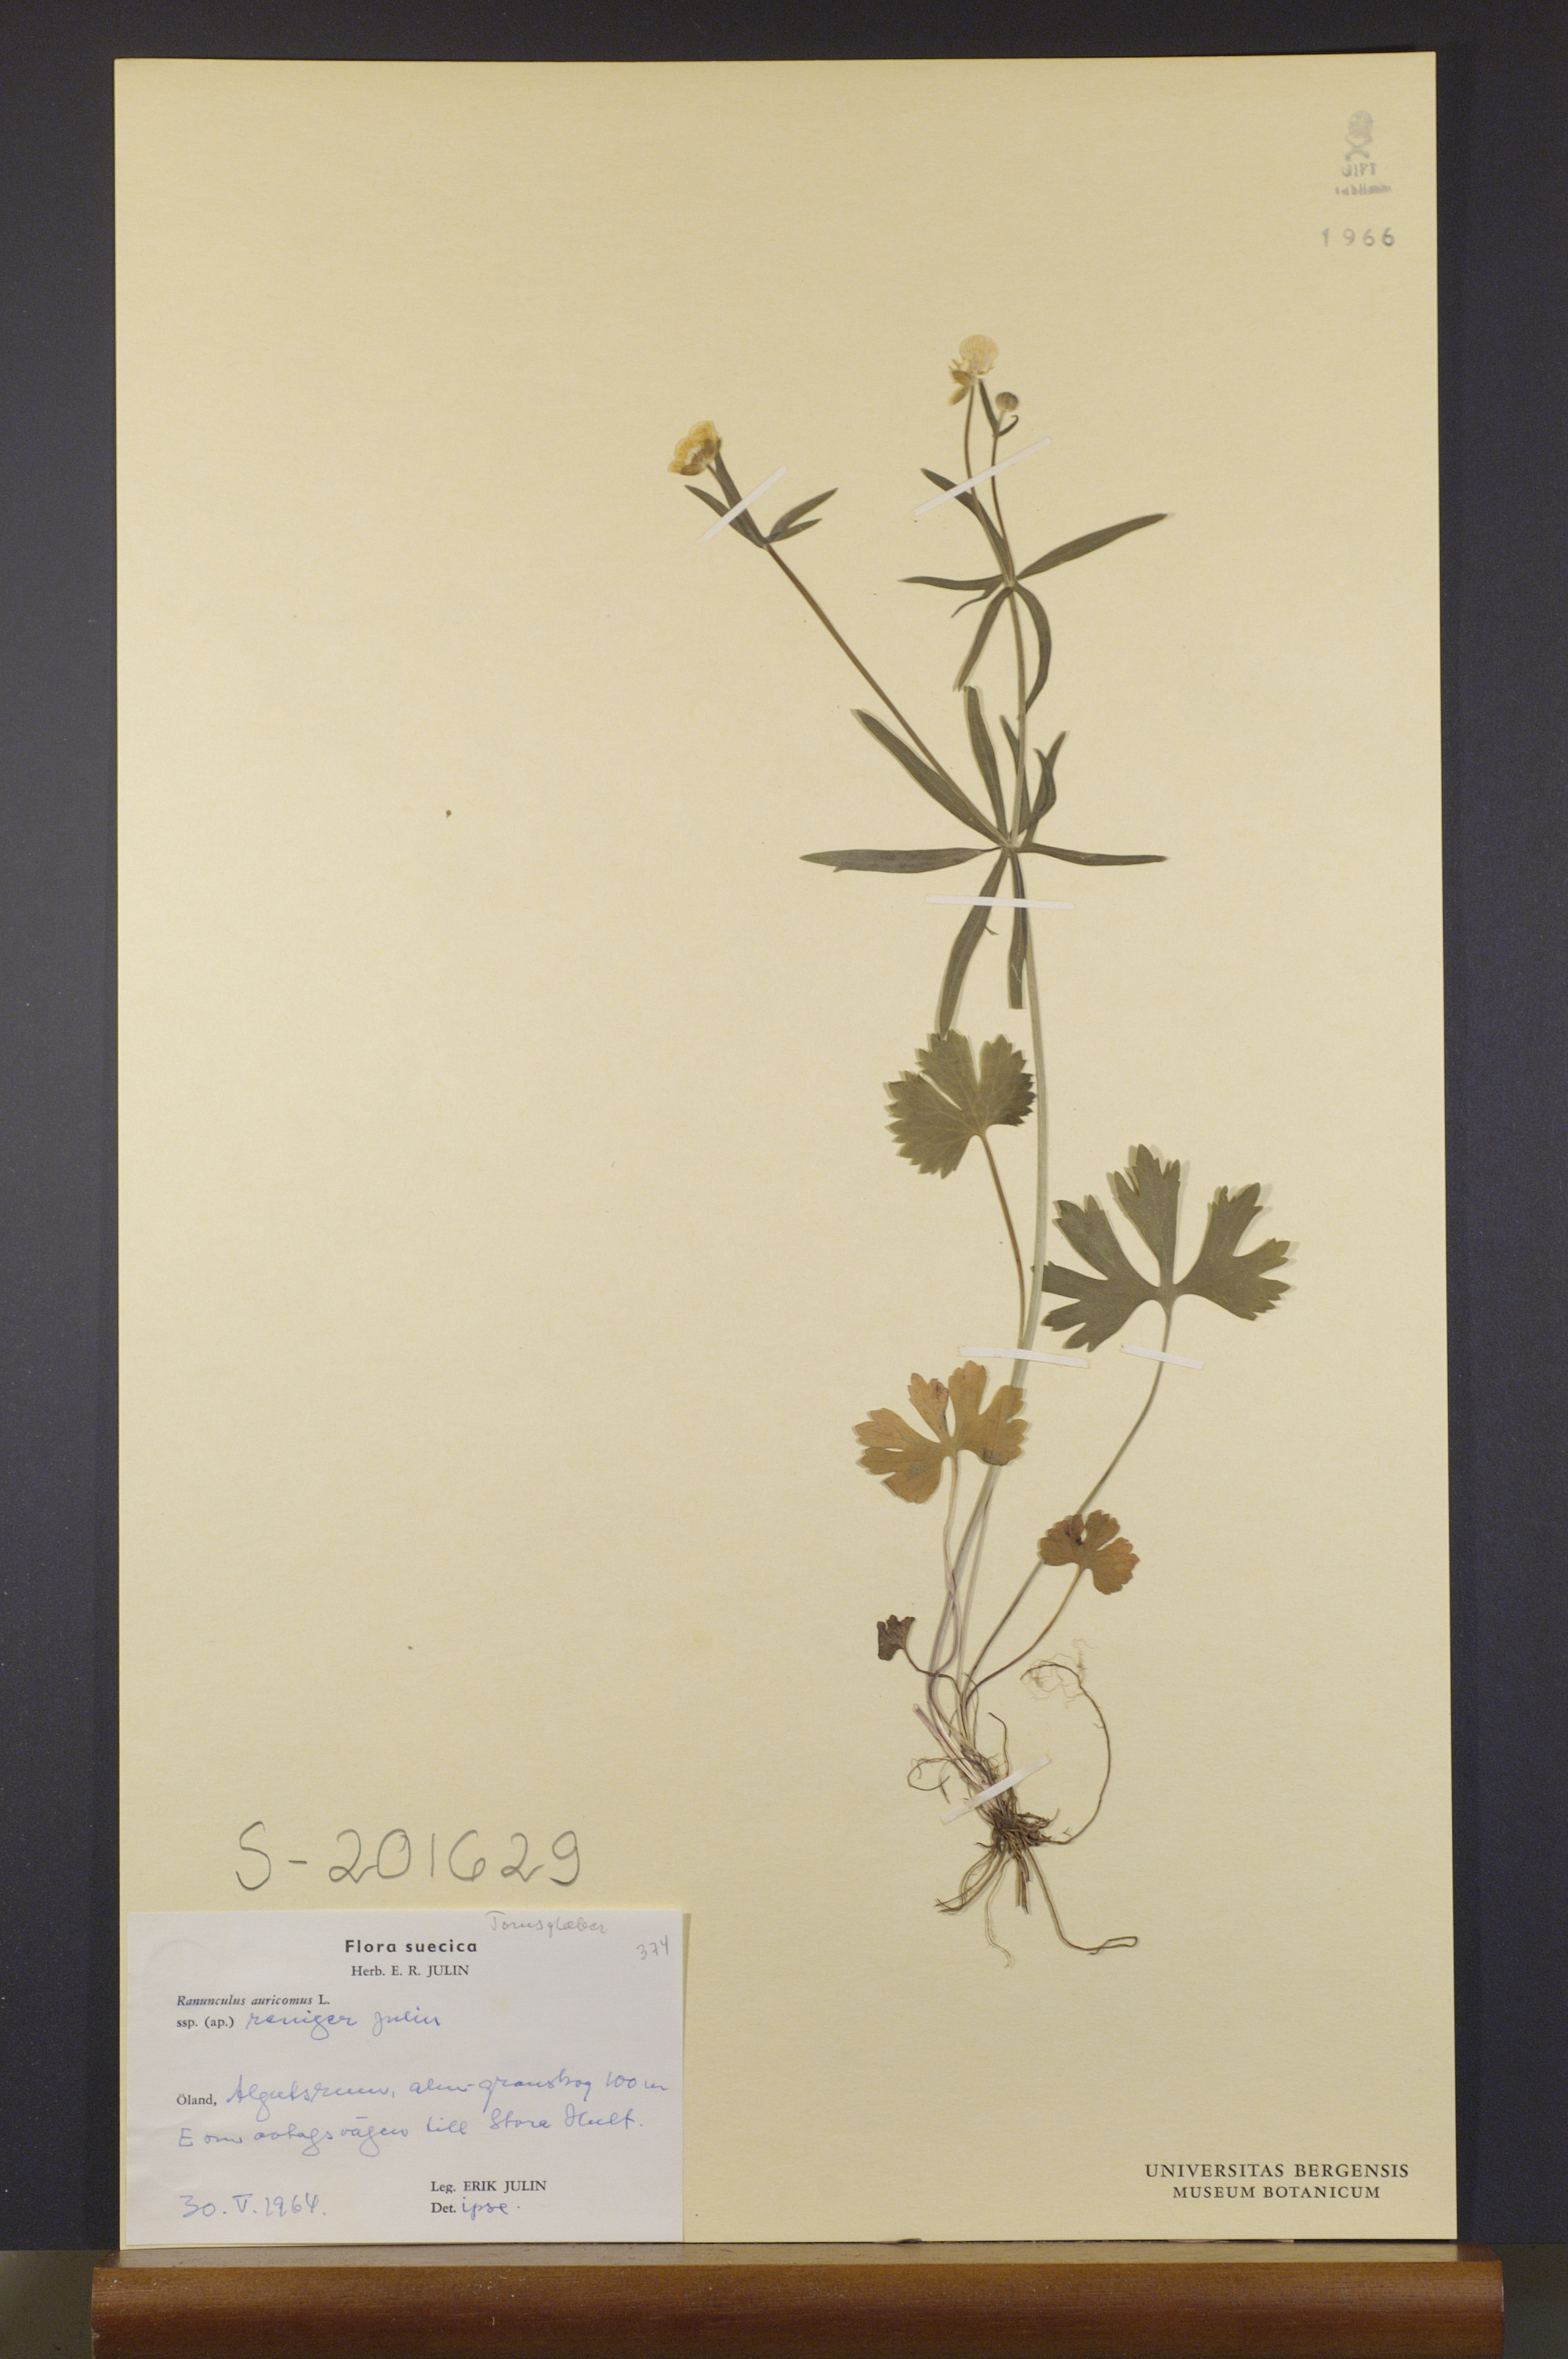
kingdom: Plantae
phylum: Tracheophyta
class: Magnoliopsida
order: Ranunculales
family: Ranunculaceae
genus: Ranunculus
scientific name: Ranunculus reniger
